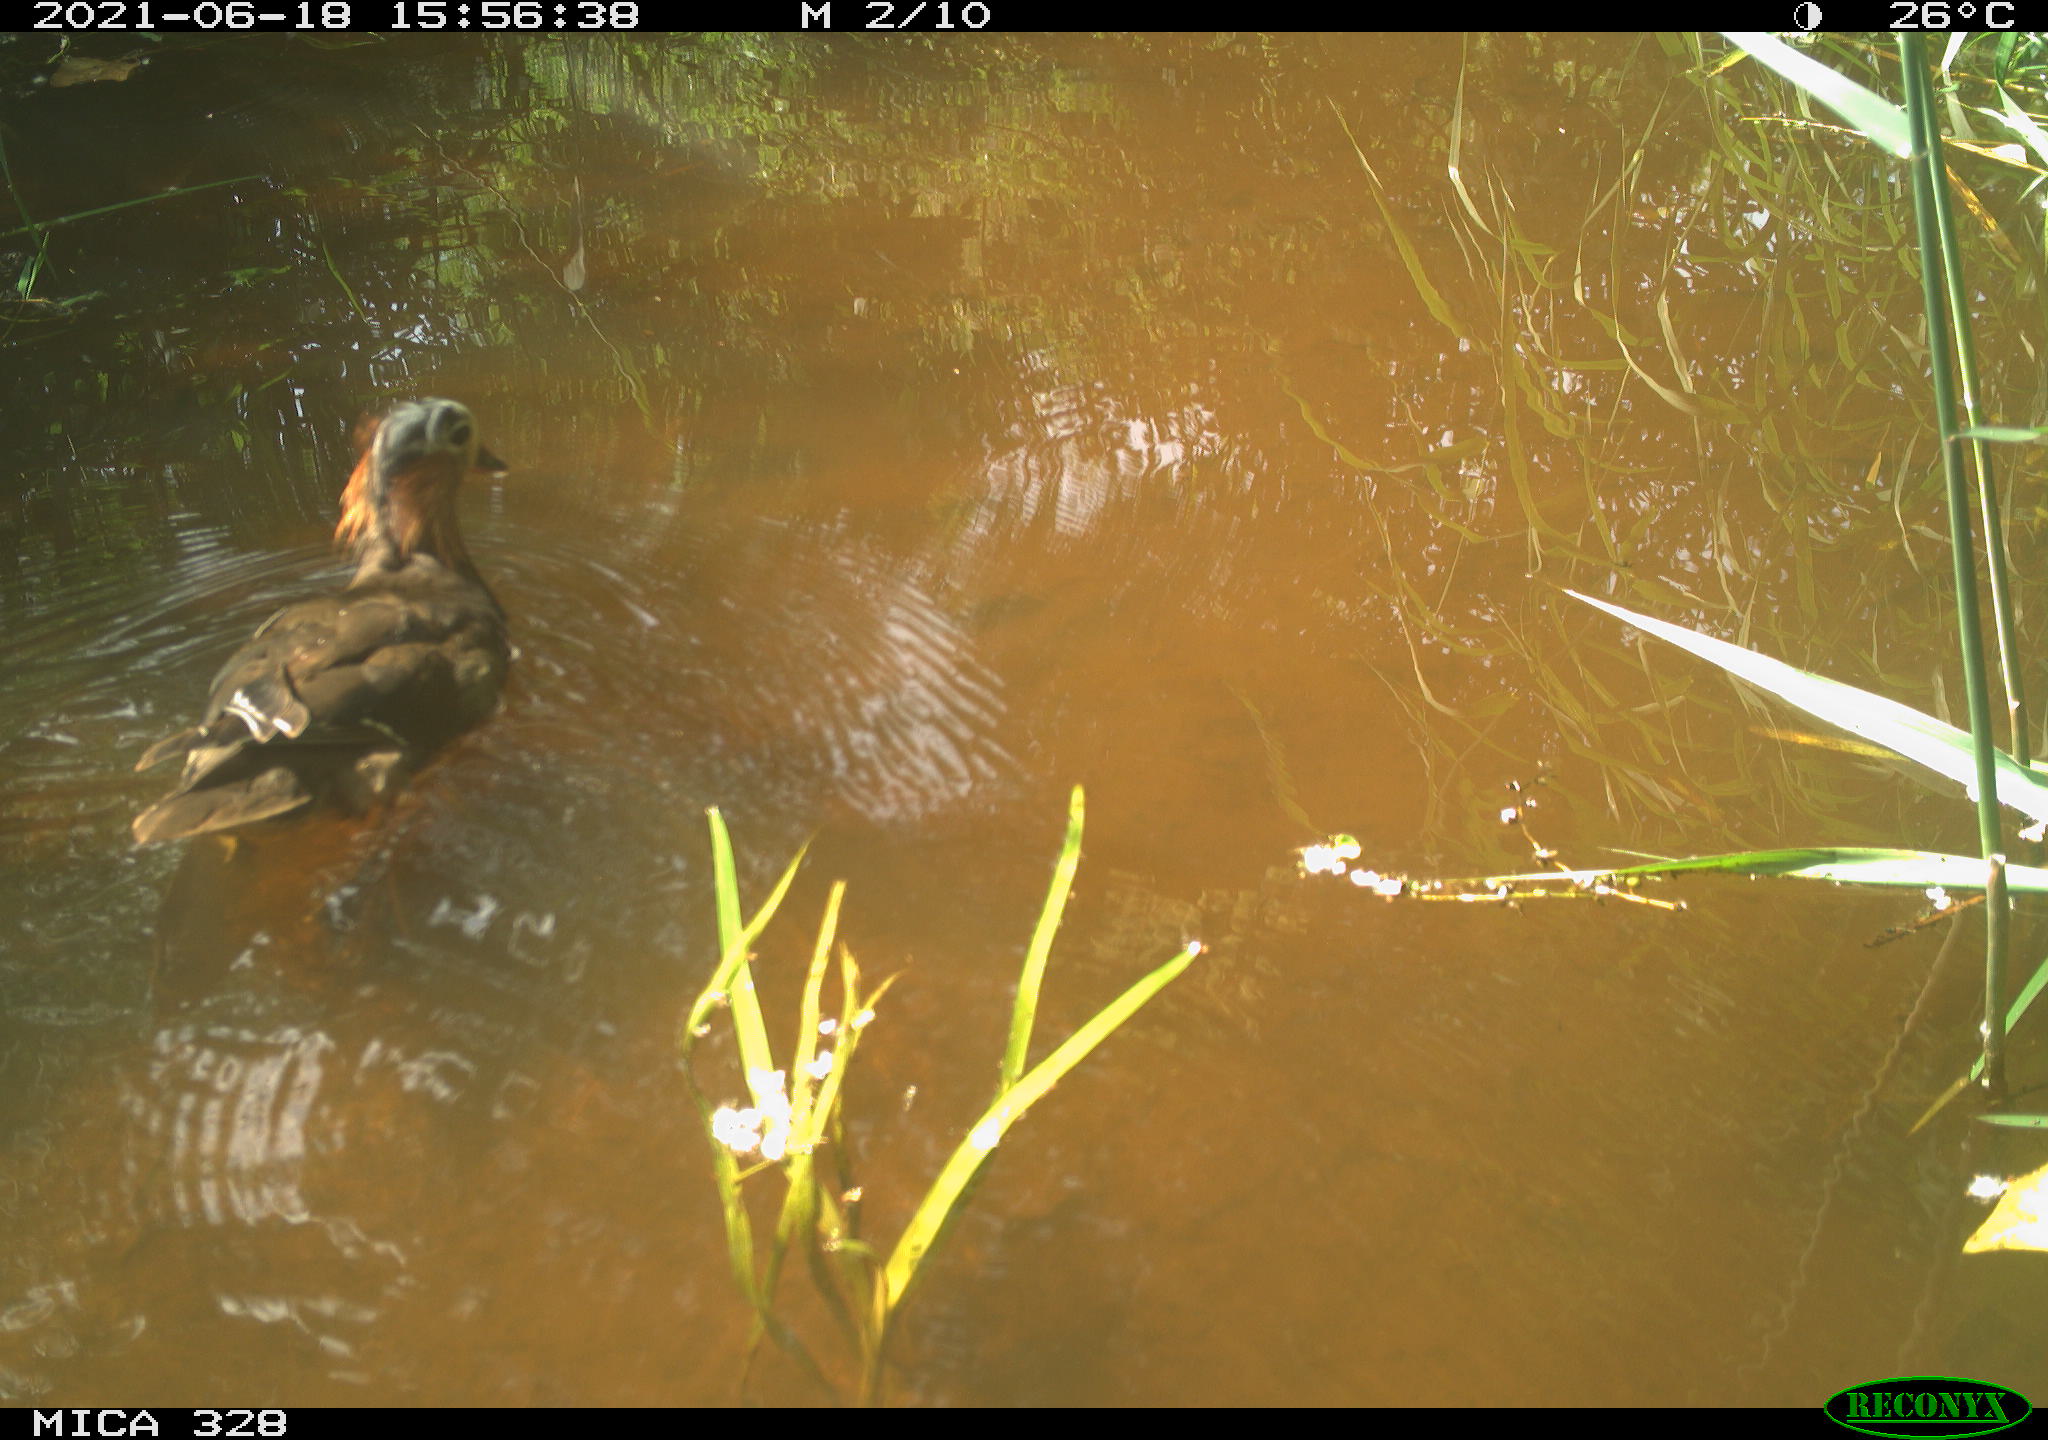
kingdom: Animalia
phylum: Chordata
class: Aves
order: Anseriformes
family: Anatidae
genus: Aix
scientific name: Aix galericulata
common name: Mandarin duck
